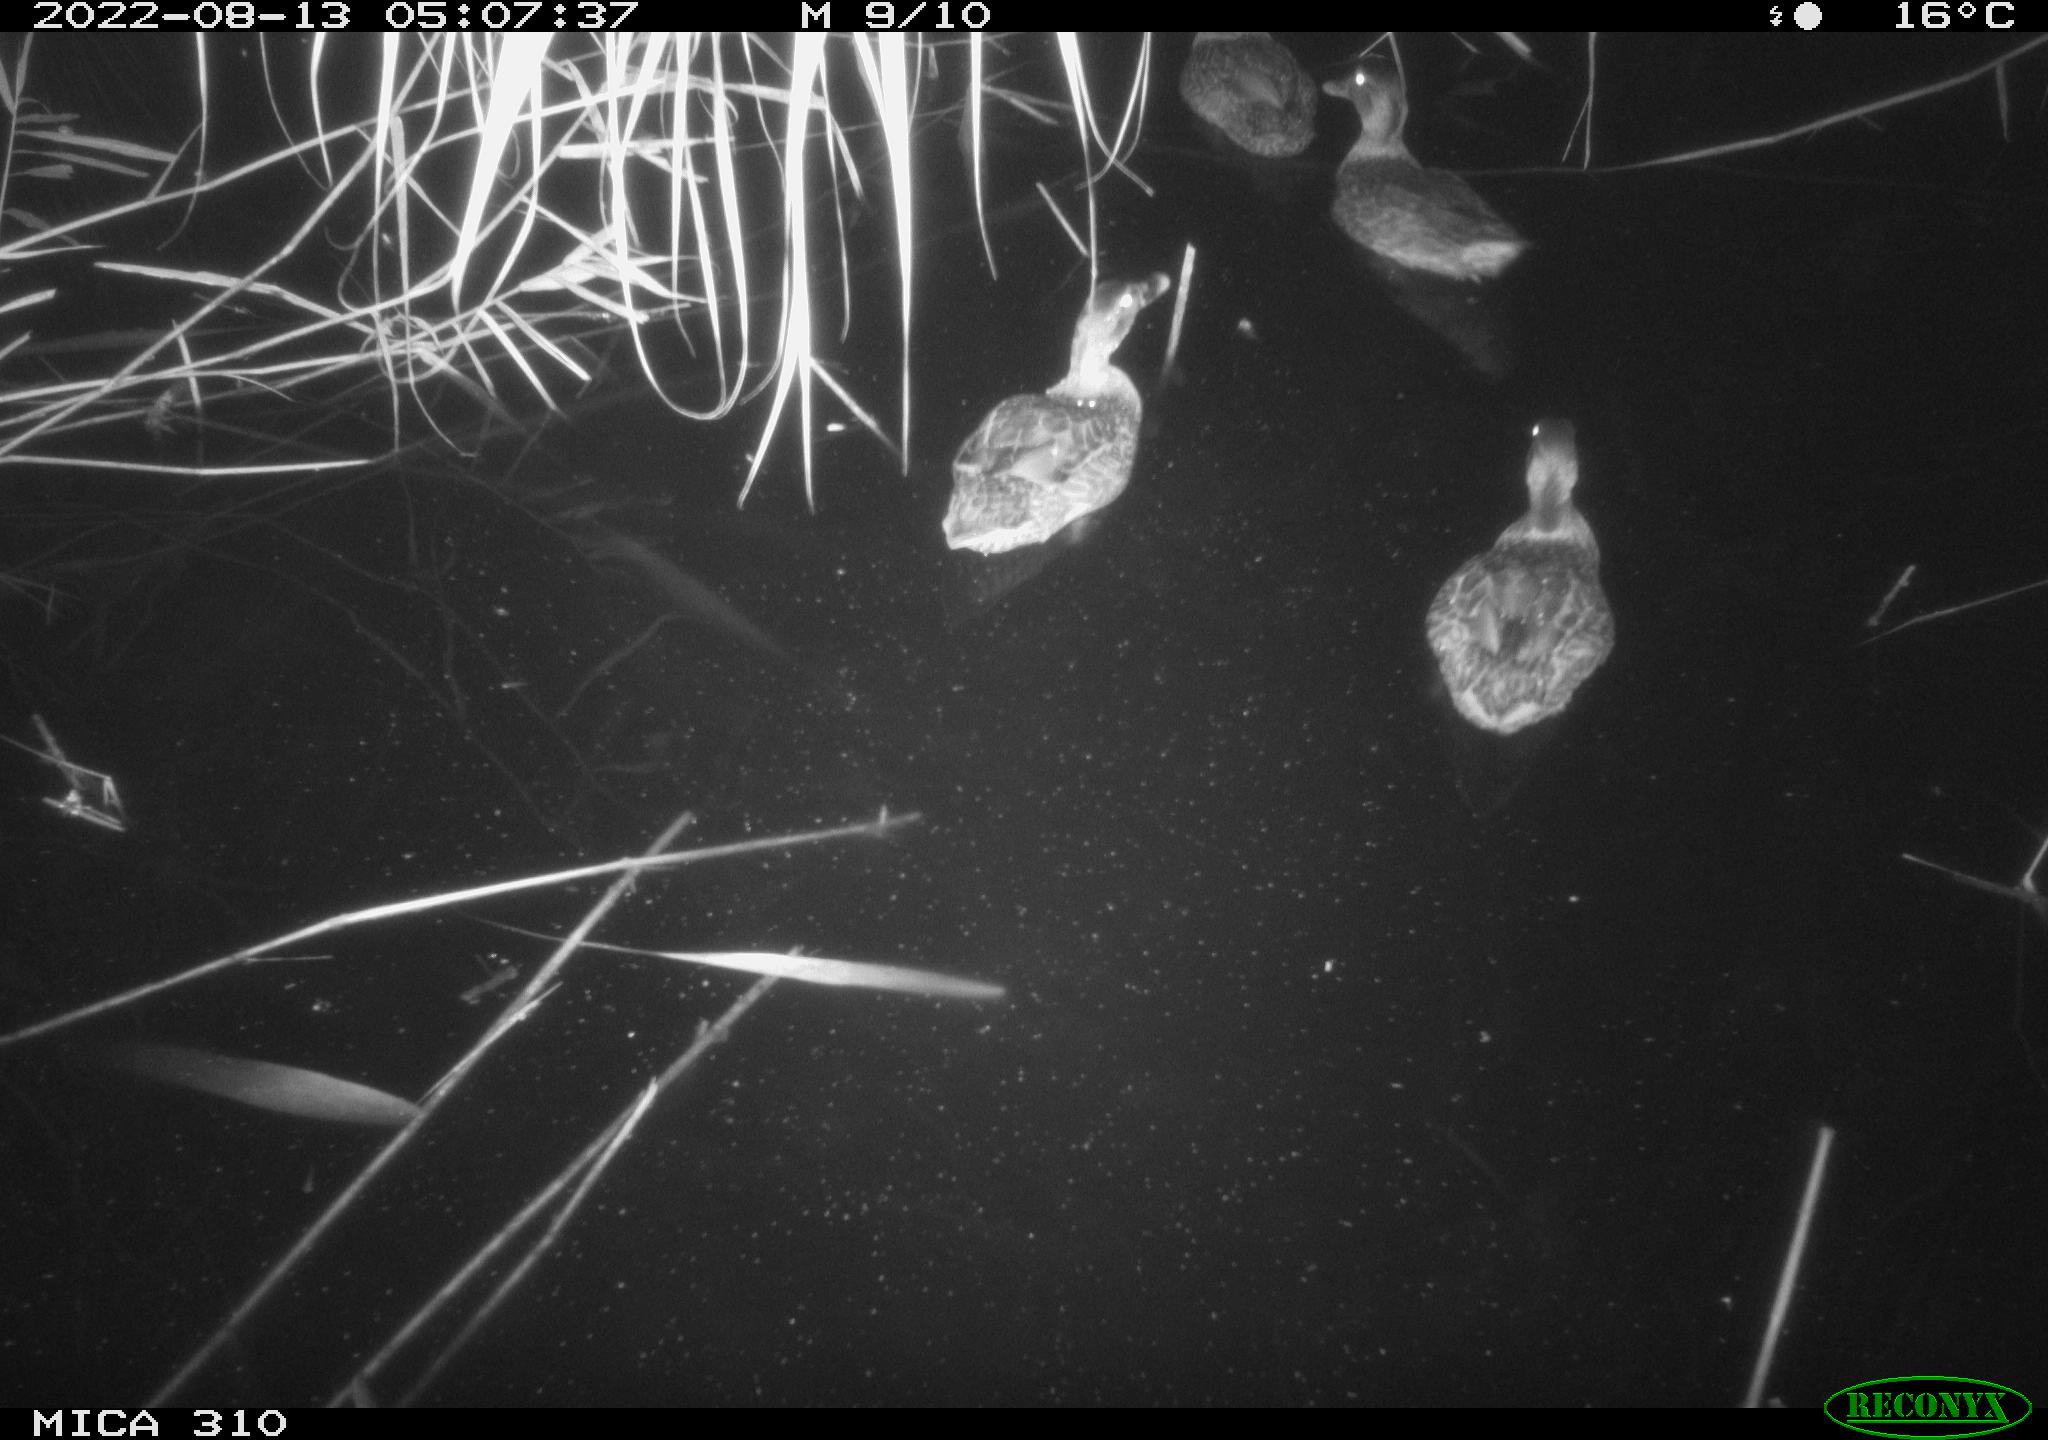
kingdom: Animalia
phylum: Chordata
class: Aves
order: Anseriformes
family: Anatidae
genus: Anas
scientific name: Anas platyrhynchos
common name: Mallard
